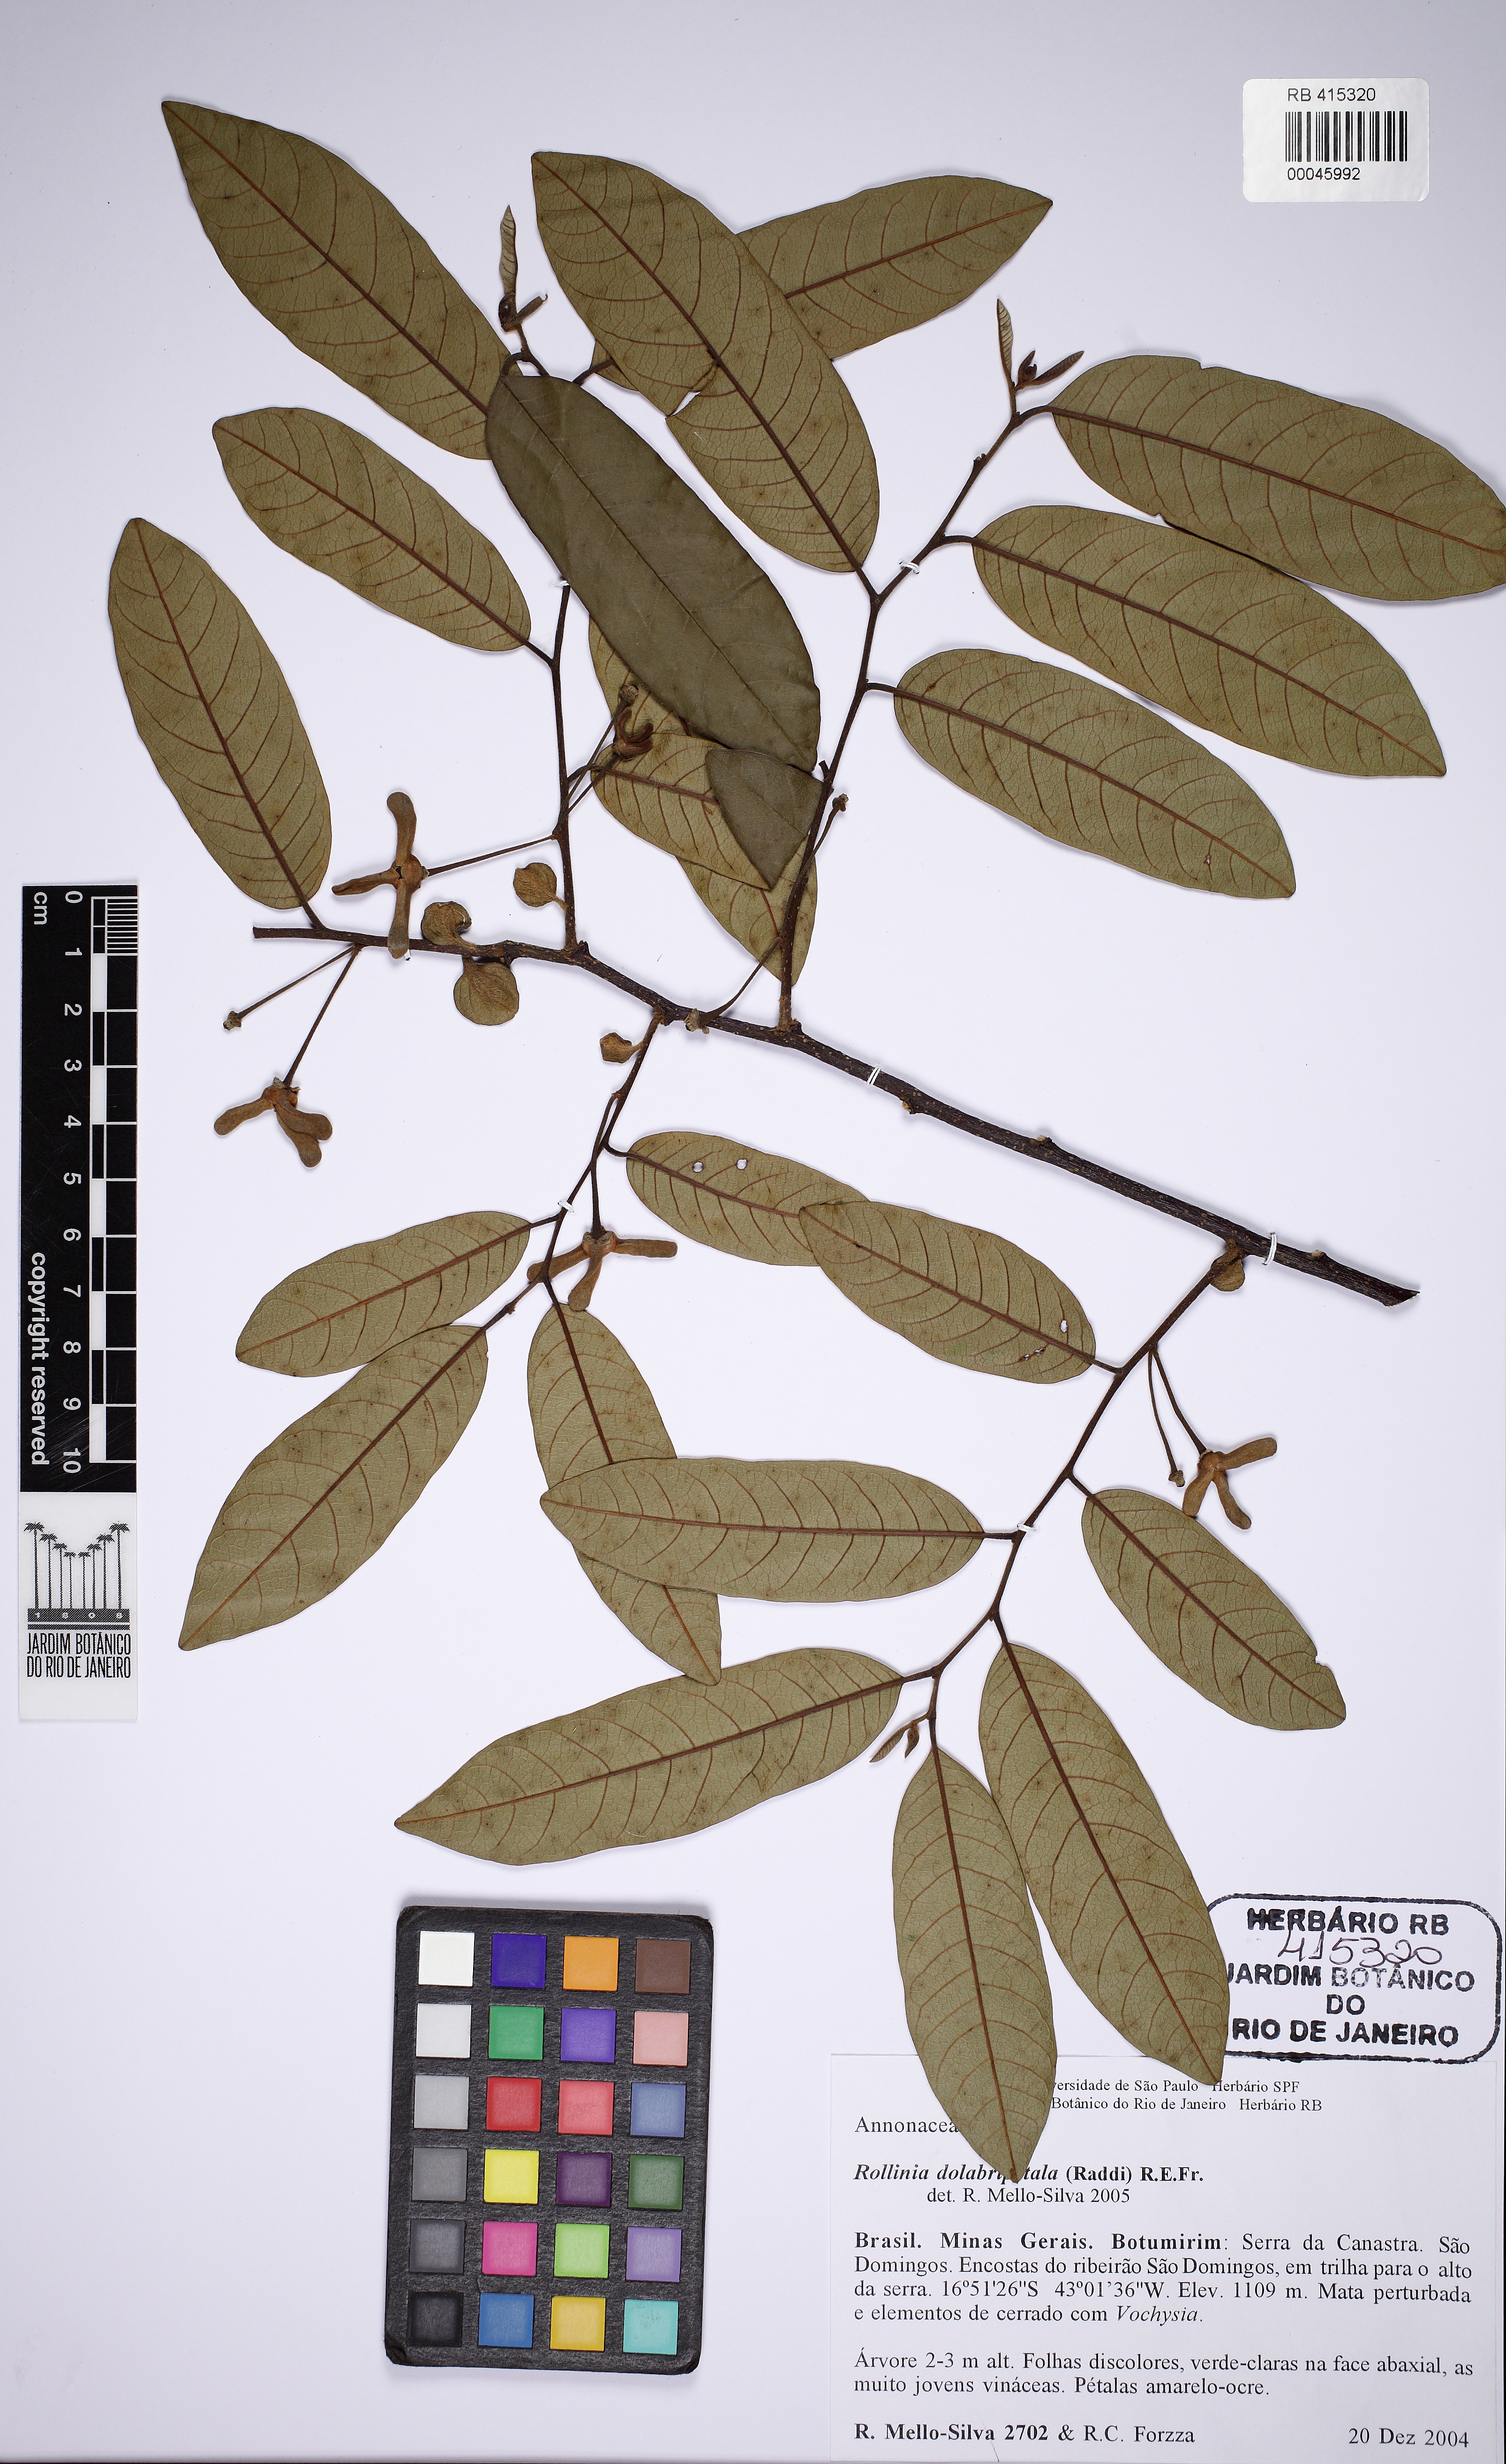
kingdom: Plantae
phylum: Tracheophyta
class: Magnoliopsida
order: Magnoliales
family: Annonaceae
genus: Annona
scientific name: Annona dolabripetala
